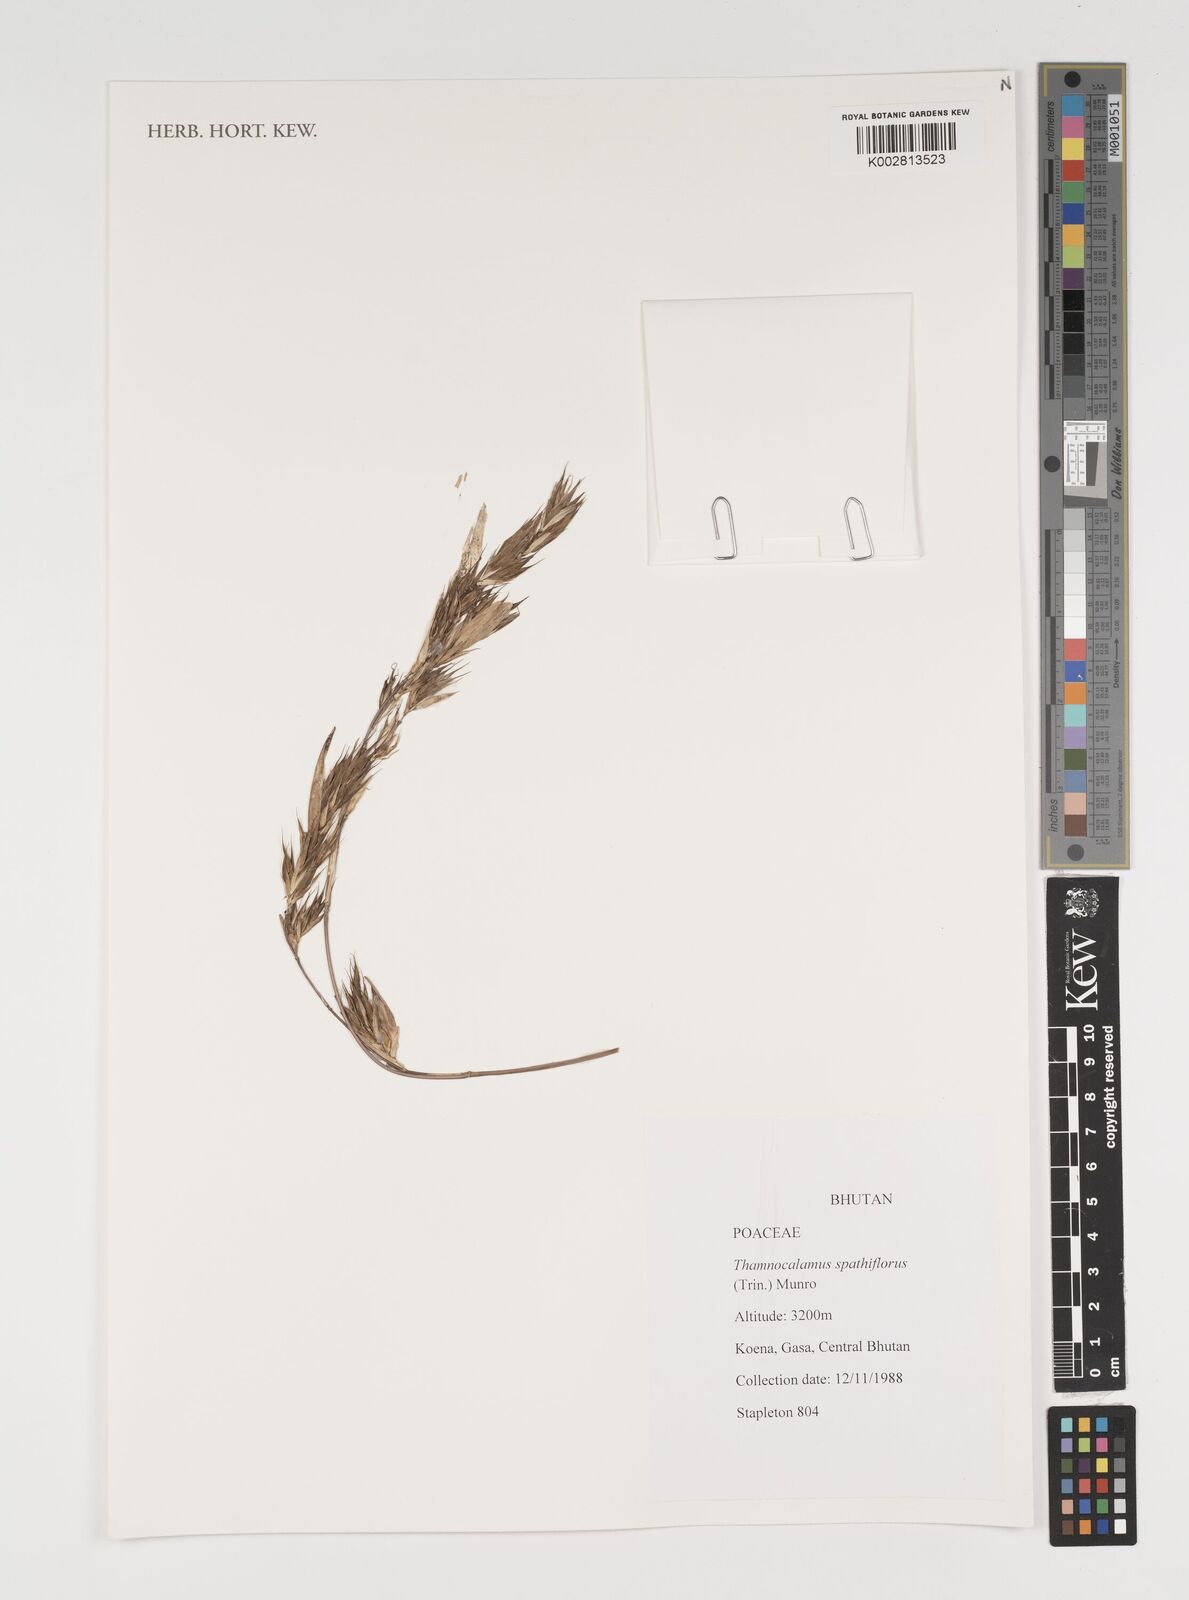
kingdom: Plantae
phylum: Tracheophyta
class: Liliopsida
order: Poales
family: Poaceae
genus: Thamnocalamus
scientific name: Thamnocalamus spathiflorus
